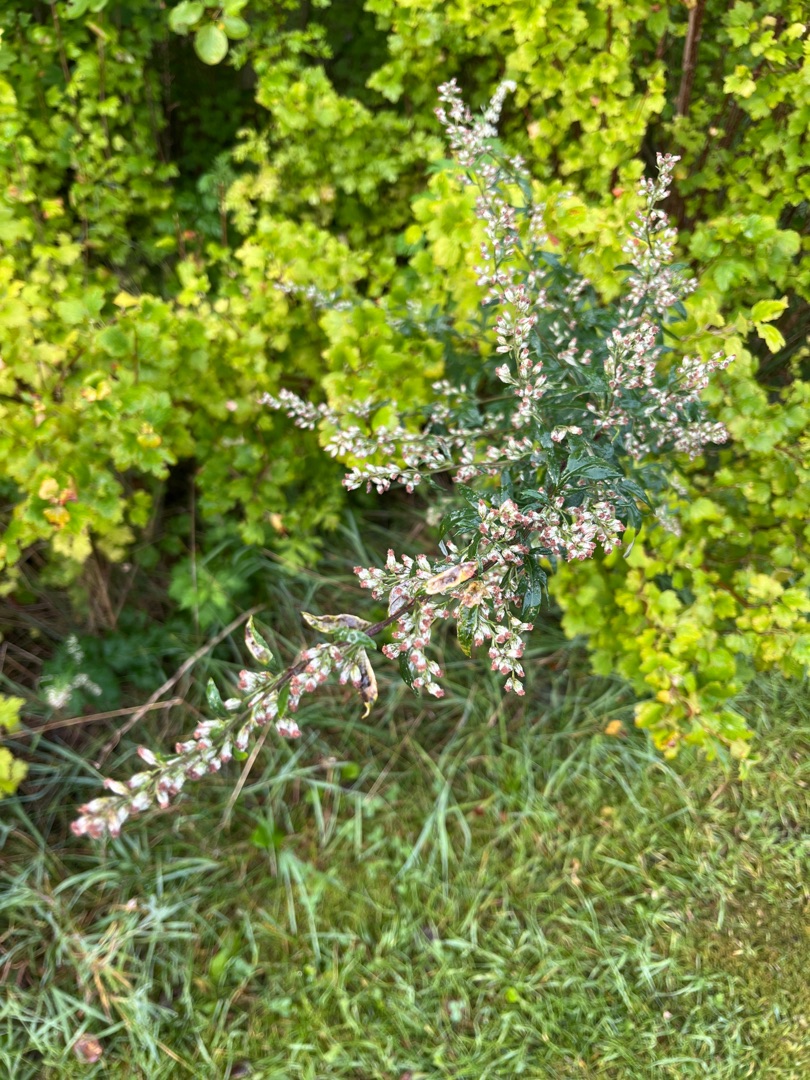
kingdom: Plantae
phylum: Tracheophyta
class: Magnoliopsida
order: Asterales
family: Asteraceae
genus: Artemisia
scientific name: Artemisia vulgaris
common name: Grå-bynke
